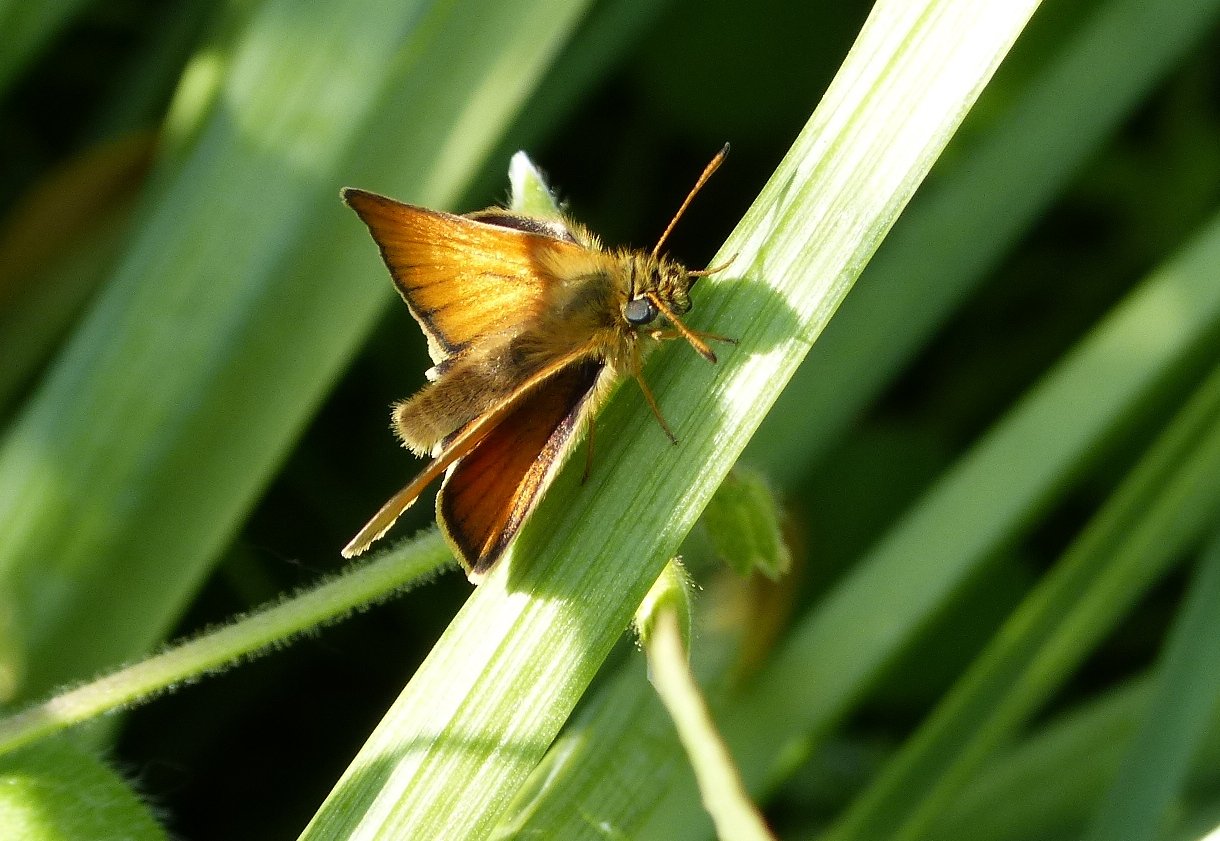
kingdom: Animalia
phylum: Arthropoda
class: Insecta
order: Lepidoptera
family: Hesperiidae
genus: Thymelicus
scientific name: Thymelicus lineola
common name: European Skipper
